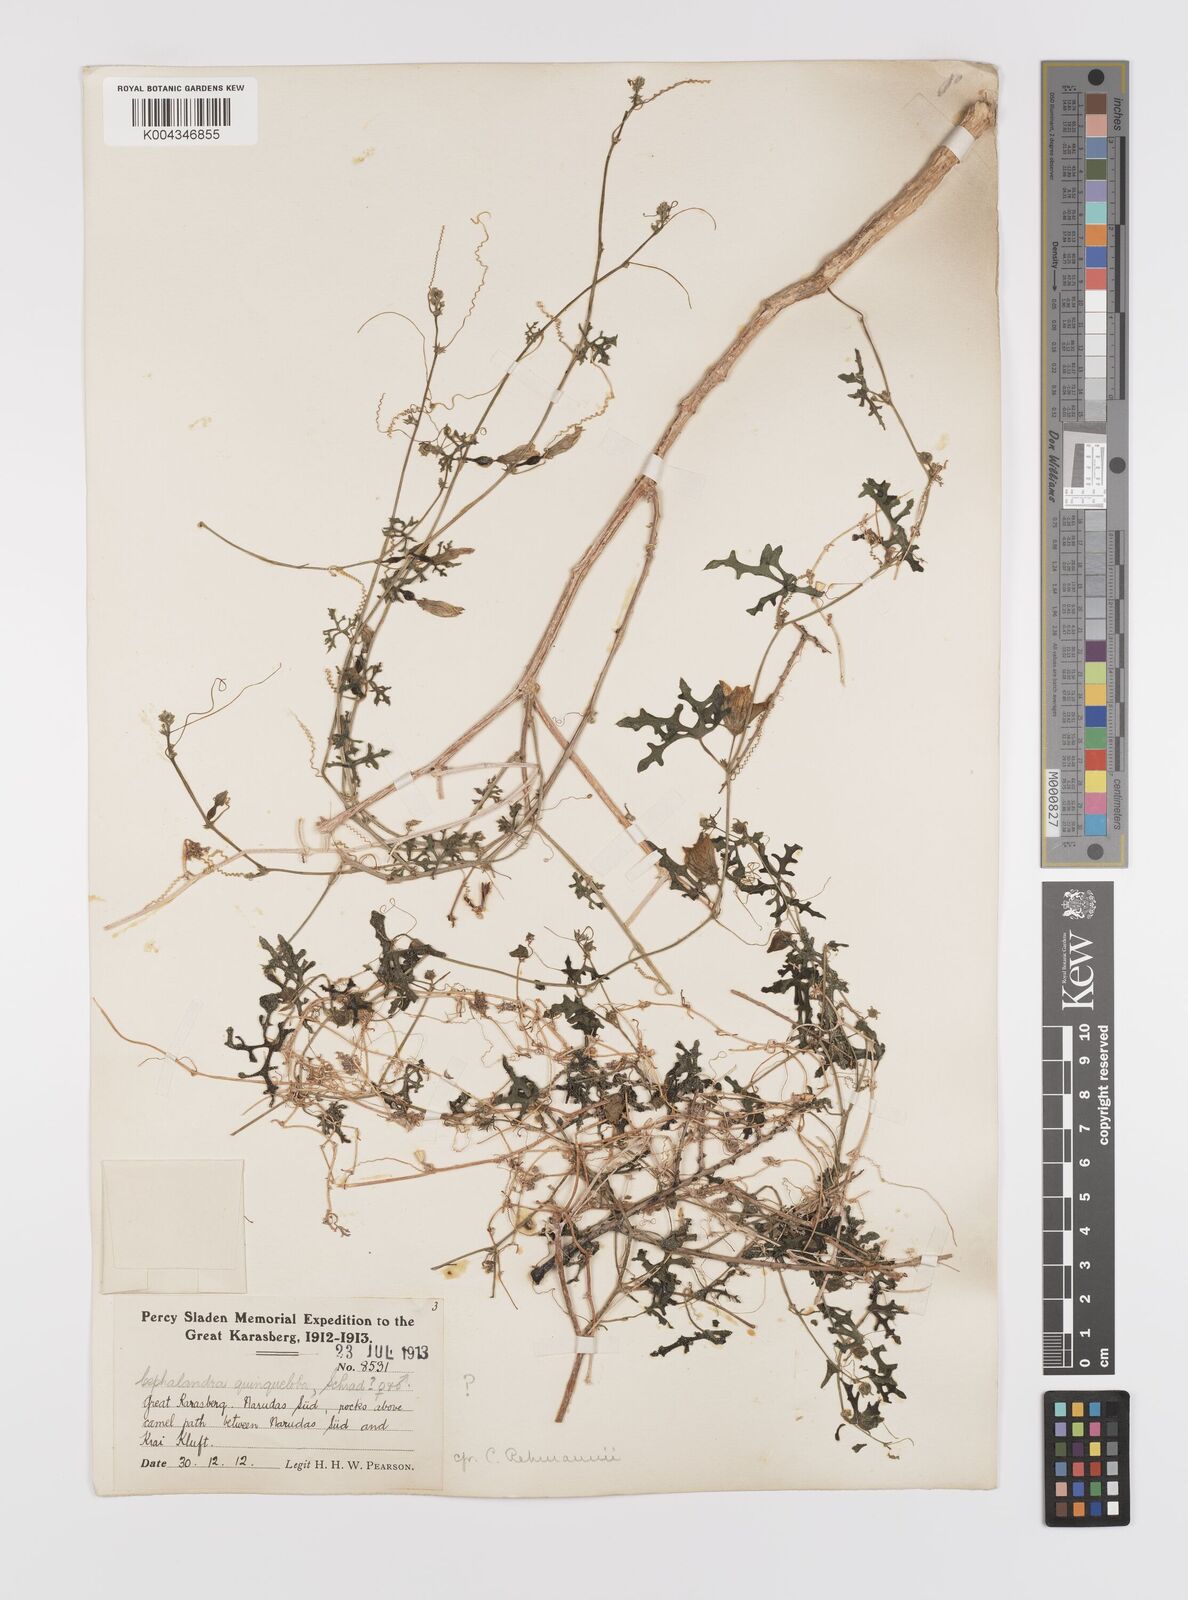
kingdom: Plantae
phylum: Tracheophyta
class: Magnoliopsida
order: Cucurbitales
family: Cucurbitaceae
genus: Coccinia
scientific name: Coccinia rehmannii
